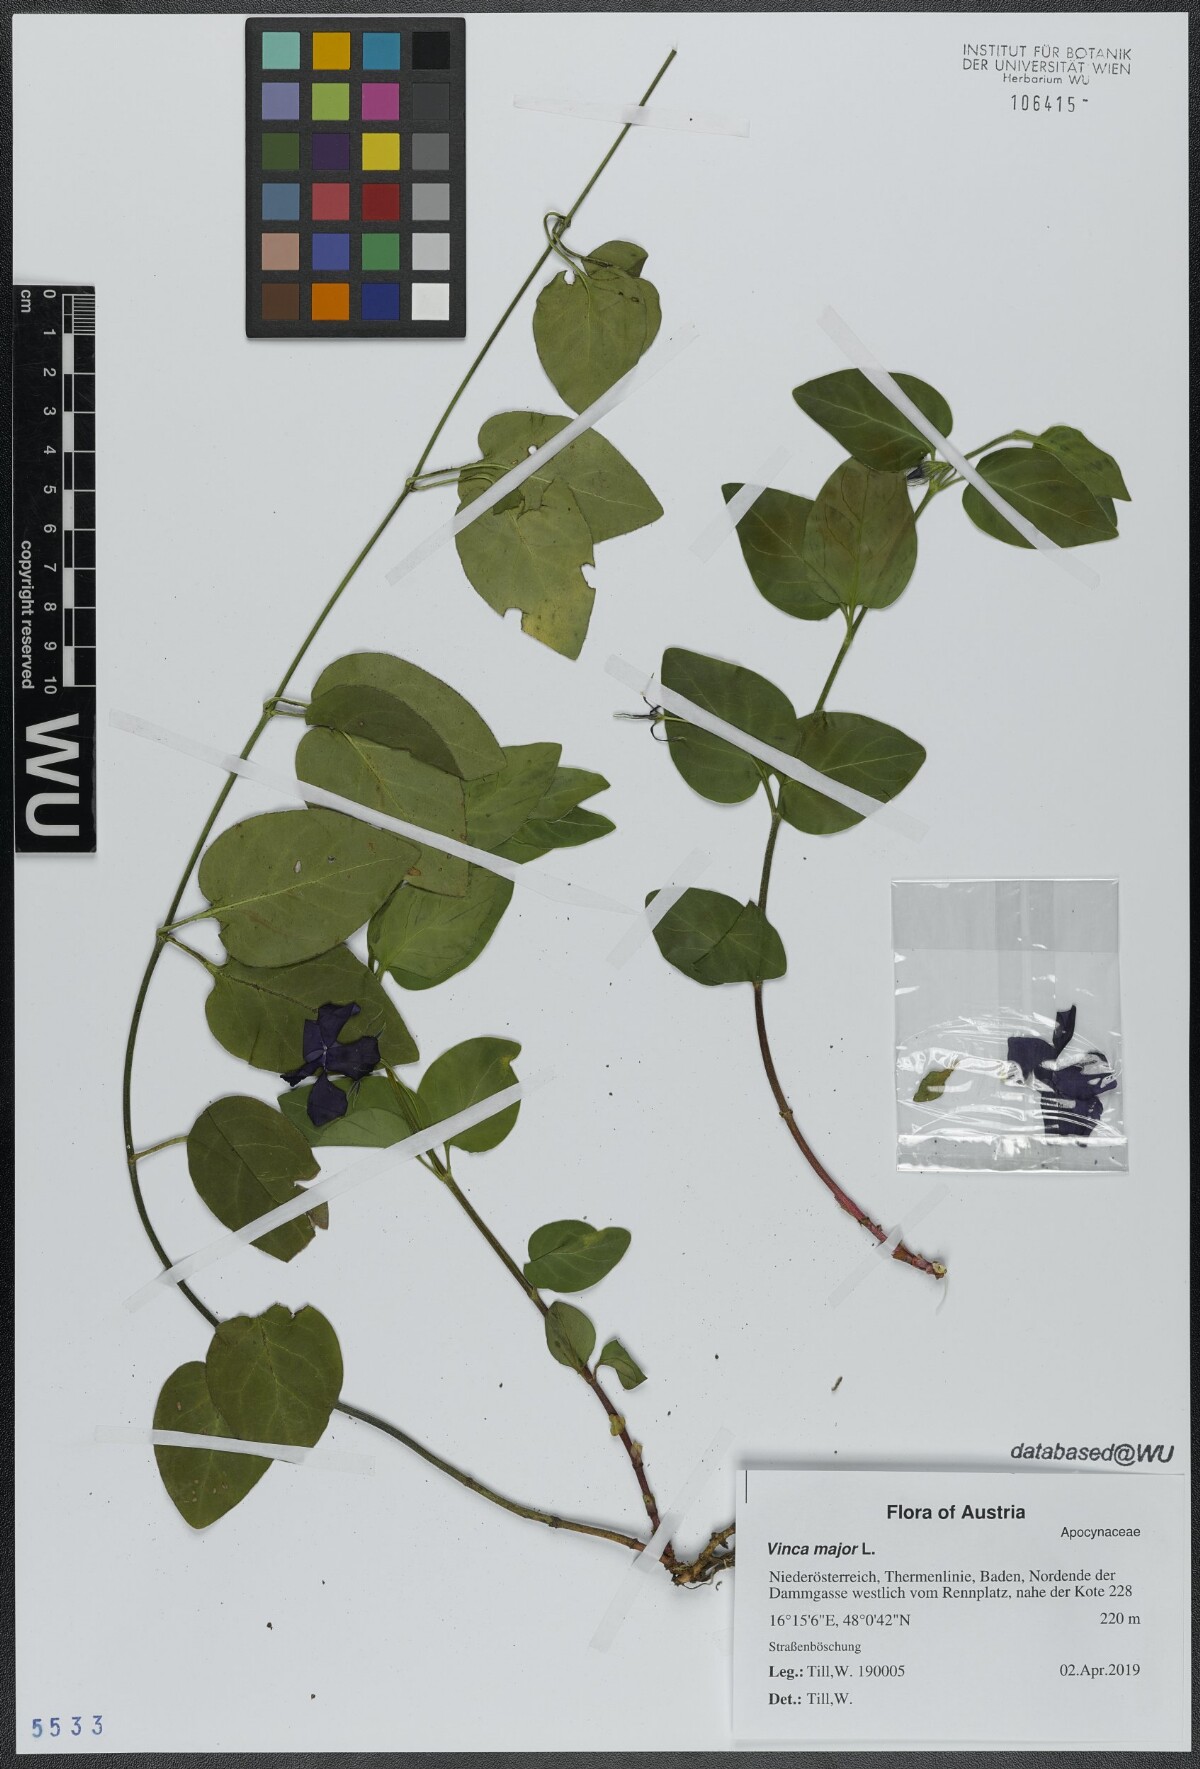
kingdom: Plantae
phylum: Tracheophyta
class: Magnoliopsida
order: Gentianales
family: Apocynaceae
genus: Vinca
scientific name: Vinca major
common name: Greater periwinkle
